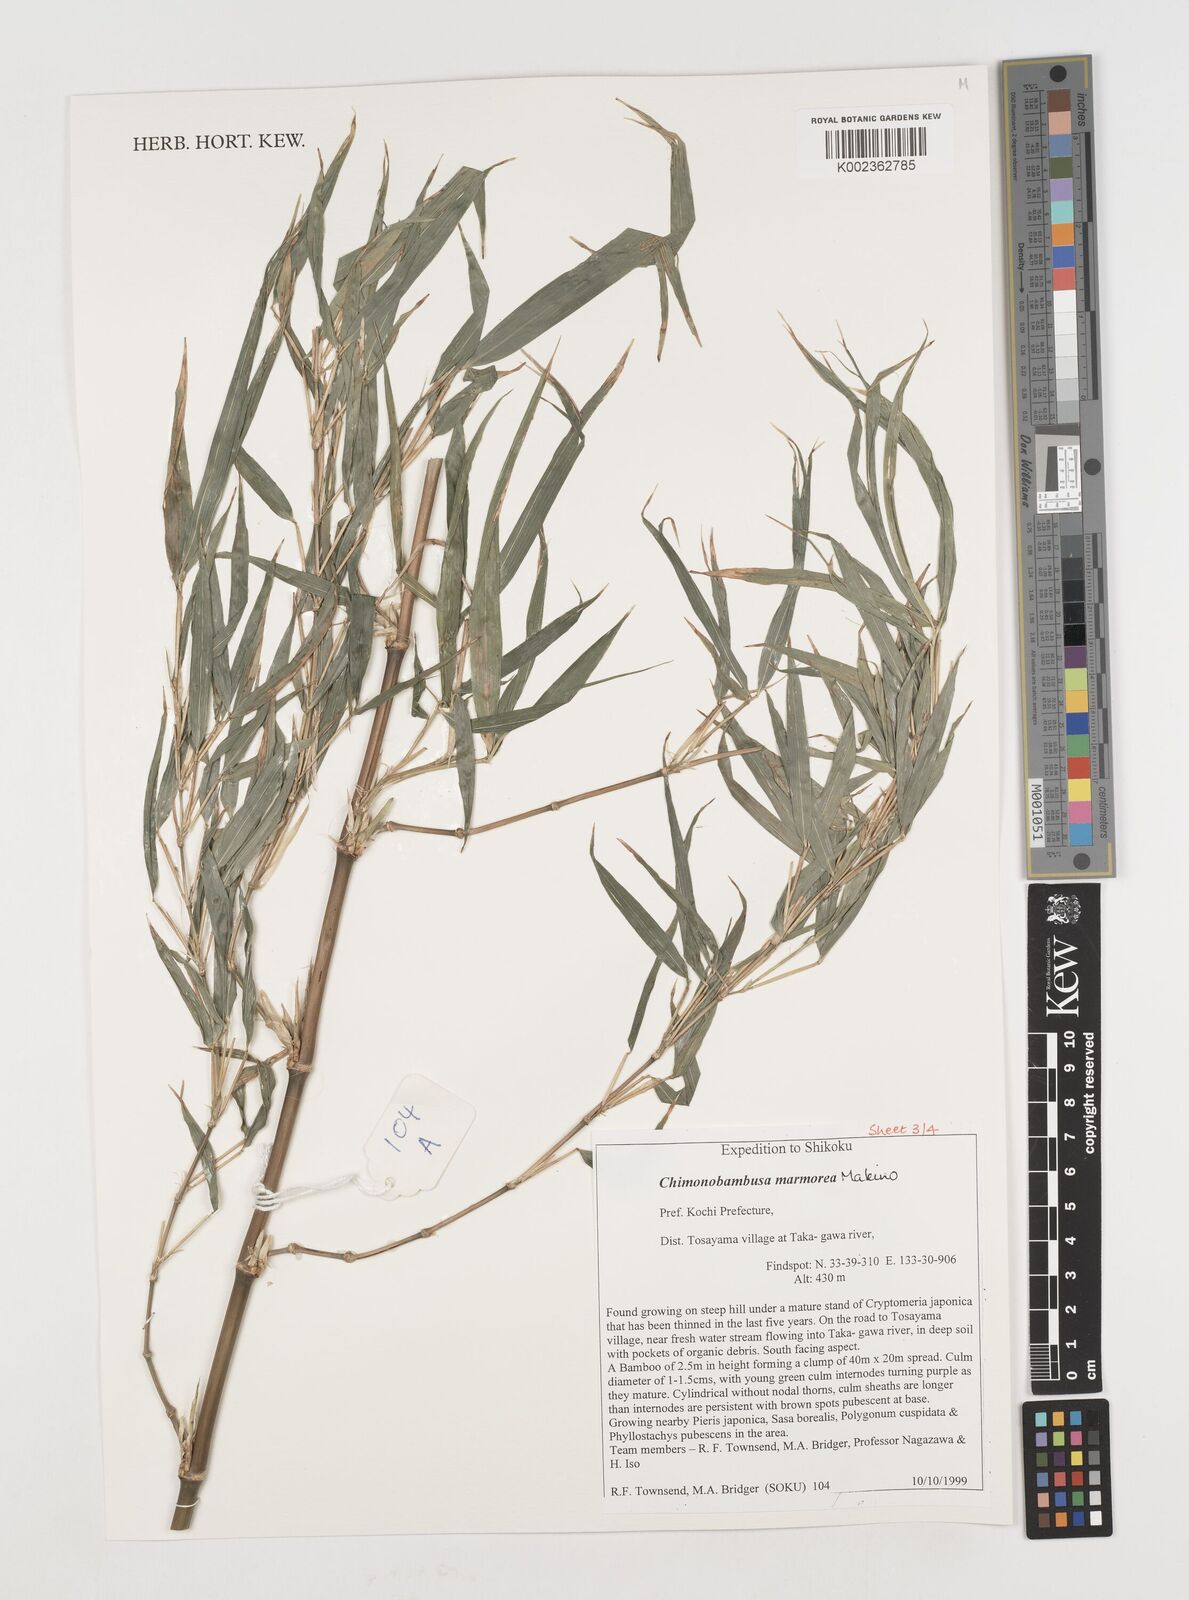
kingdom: Plantae
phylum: Tracheophyta
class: Liliopsida
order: Poales
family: Poaceae
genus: Chimonobambusa
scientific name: Chimonobambusa marmorea
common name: Marbled bamboo
